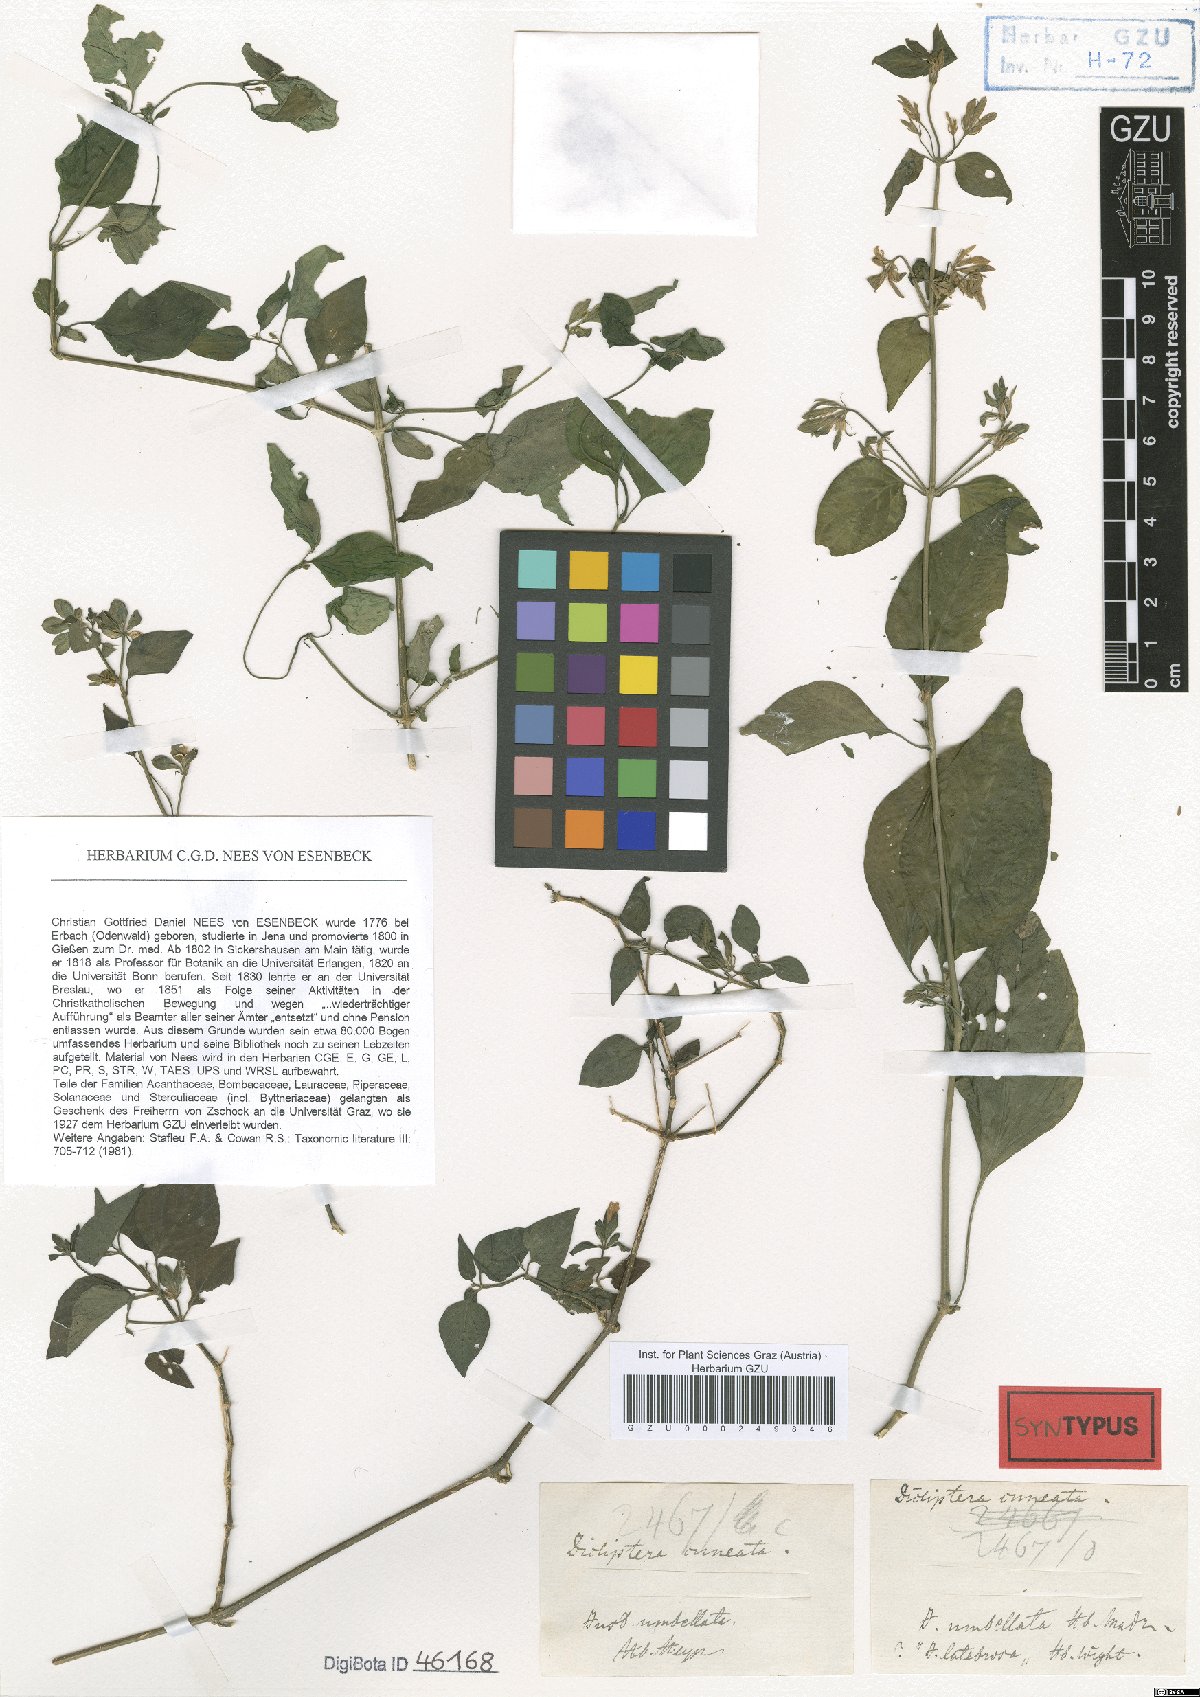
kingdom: Plantae
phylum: Tracheophyta
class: Magnoliopsida
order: Lamiales
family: Acanthaceae
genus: Dicliptera
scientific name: Dicliptera cuneata
